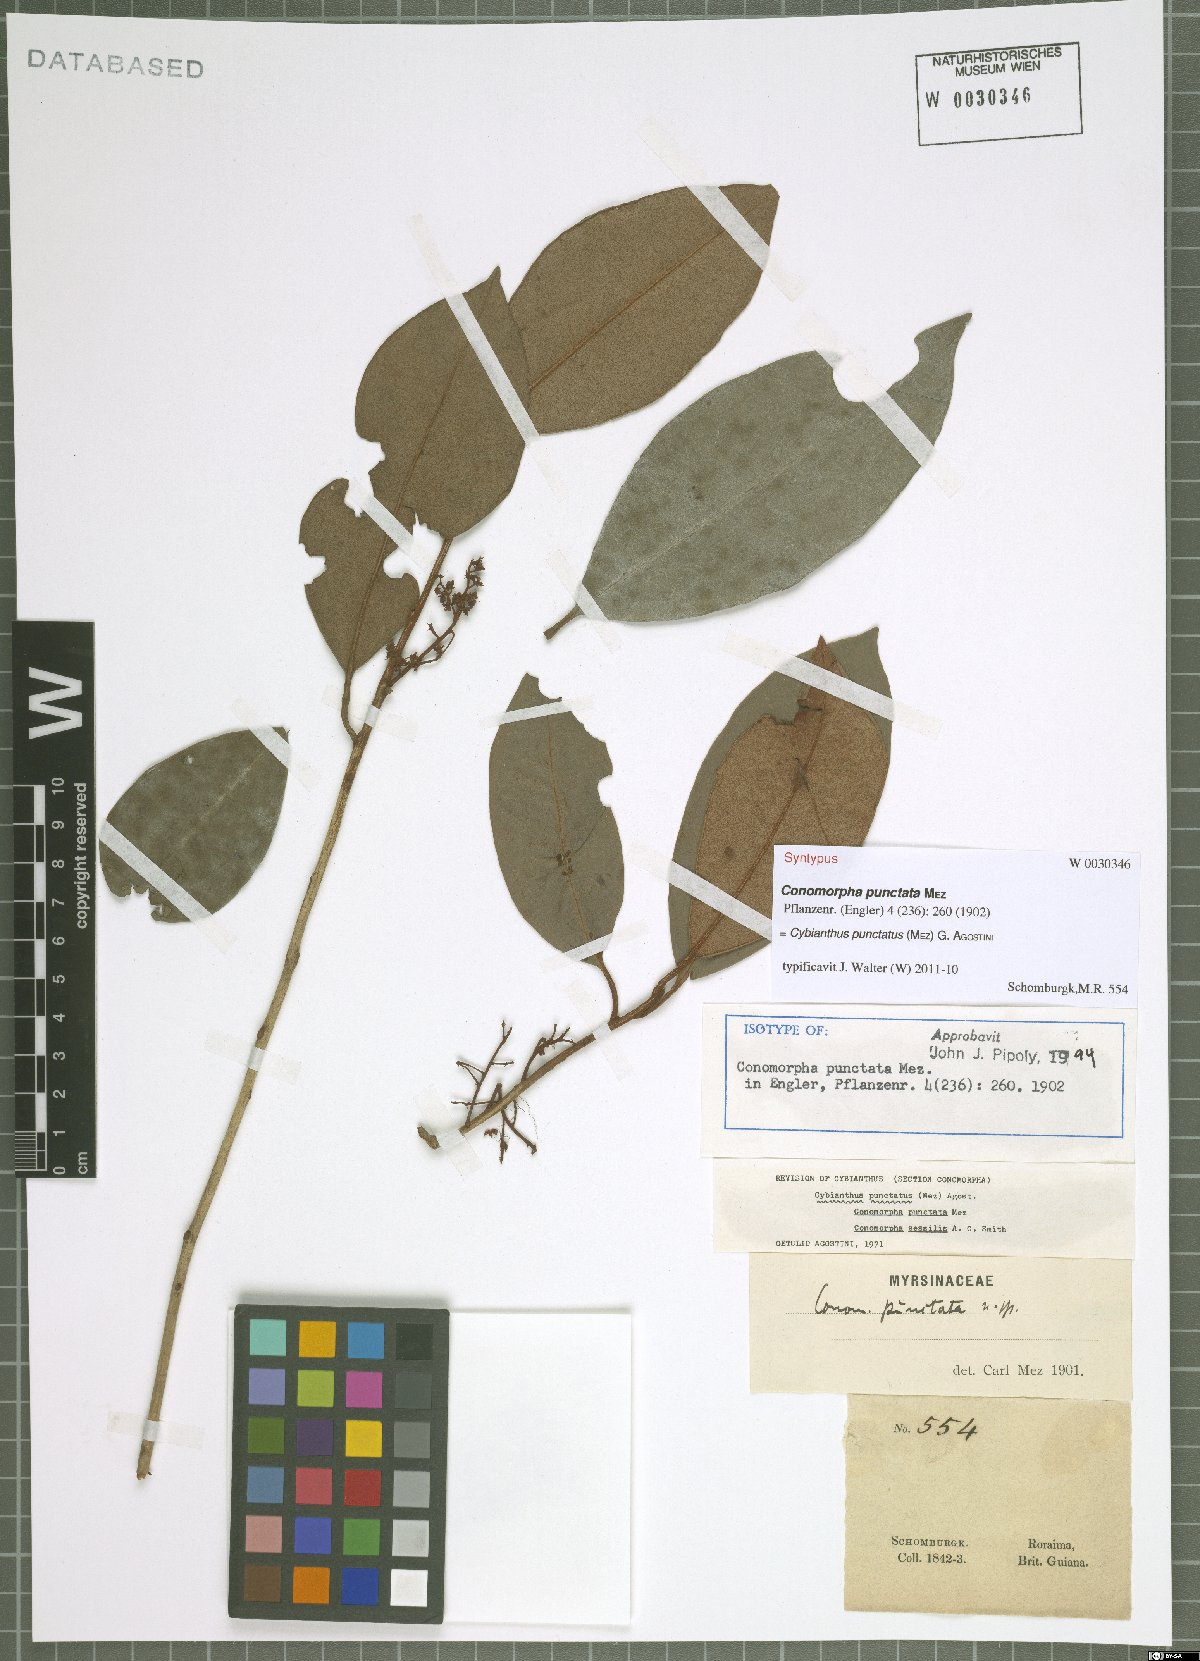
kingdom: Plantae
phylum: Tracheophyta
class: Magnoliopsida
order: Ericales
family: Primulaceae
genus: Cybianthus
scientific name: Cybianthus punctatus
